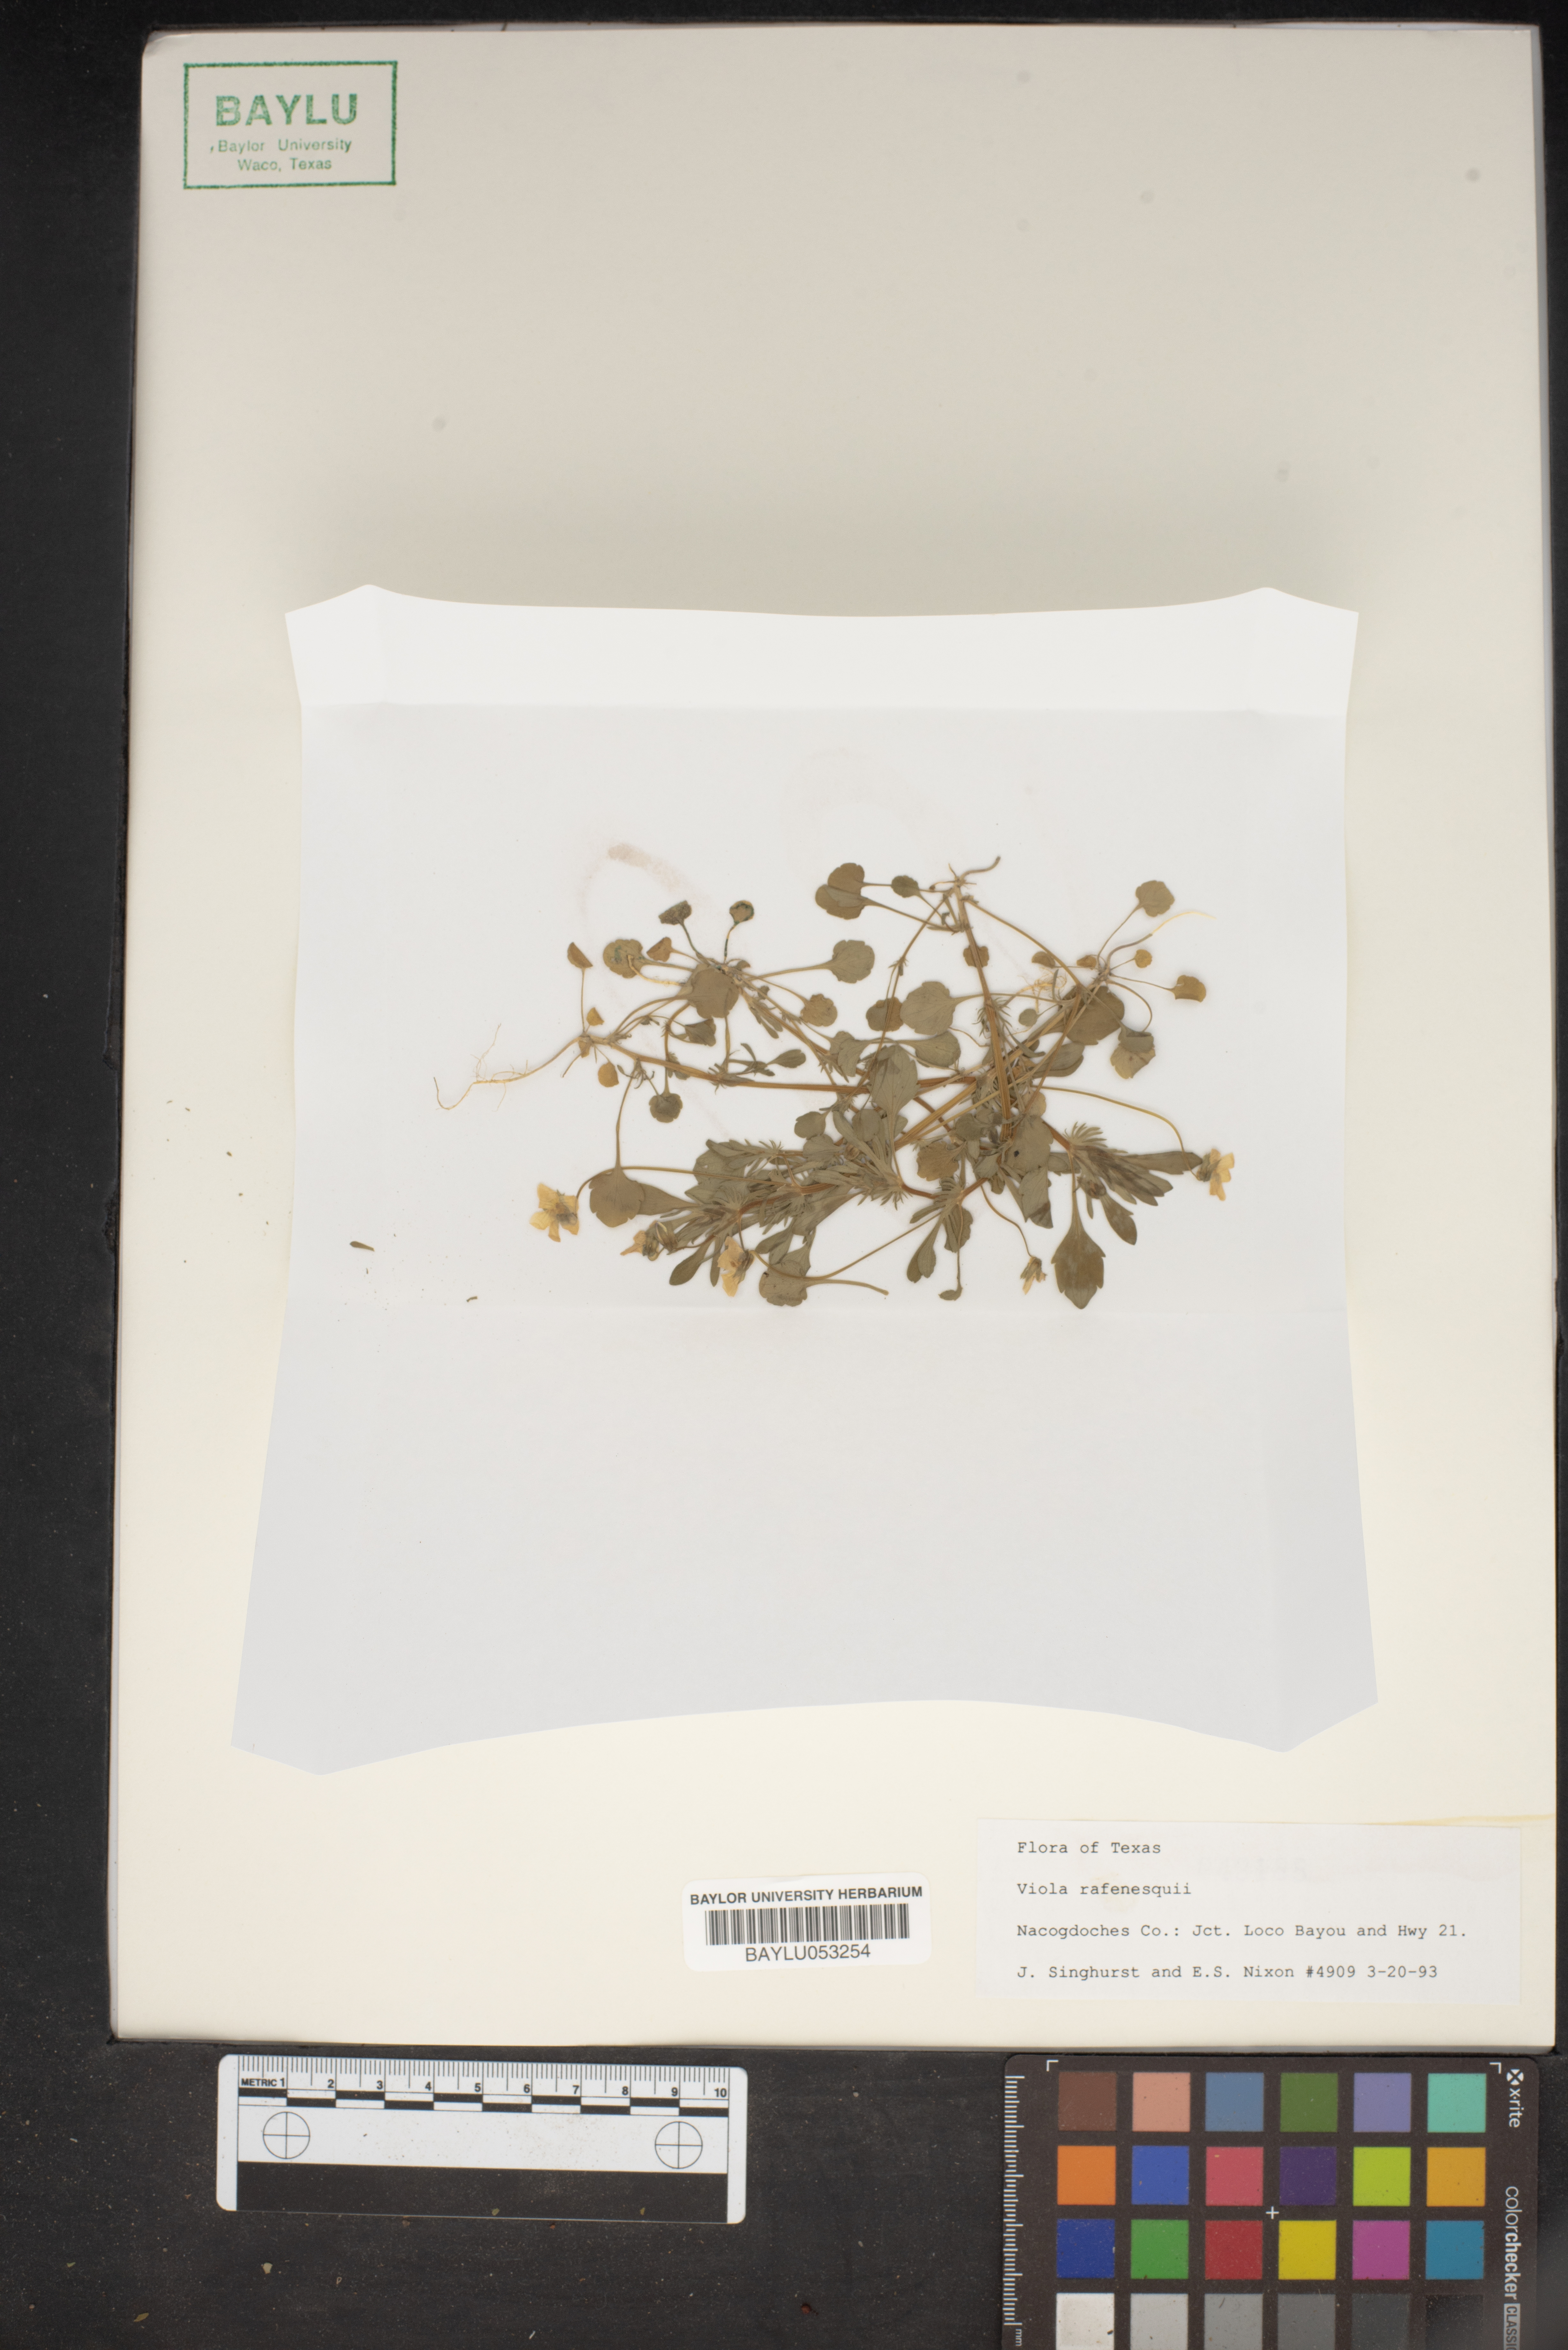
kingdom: Plantae
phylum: Tracheophyta
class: Magnoliopsida
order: Malpighiales
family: Violaceae
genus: Viola
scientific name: Viola rafinesquei
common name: American field pansy
